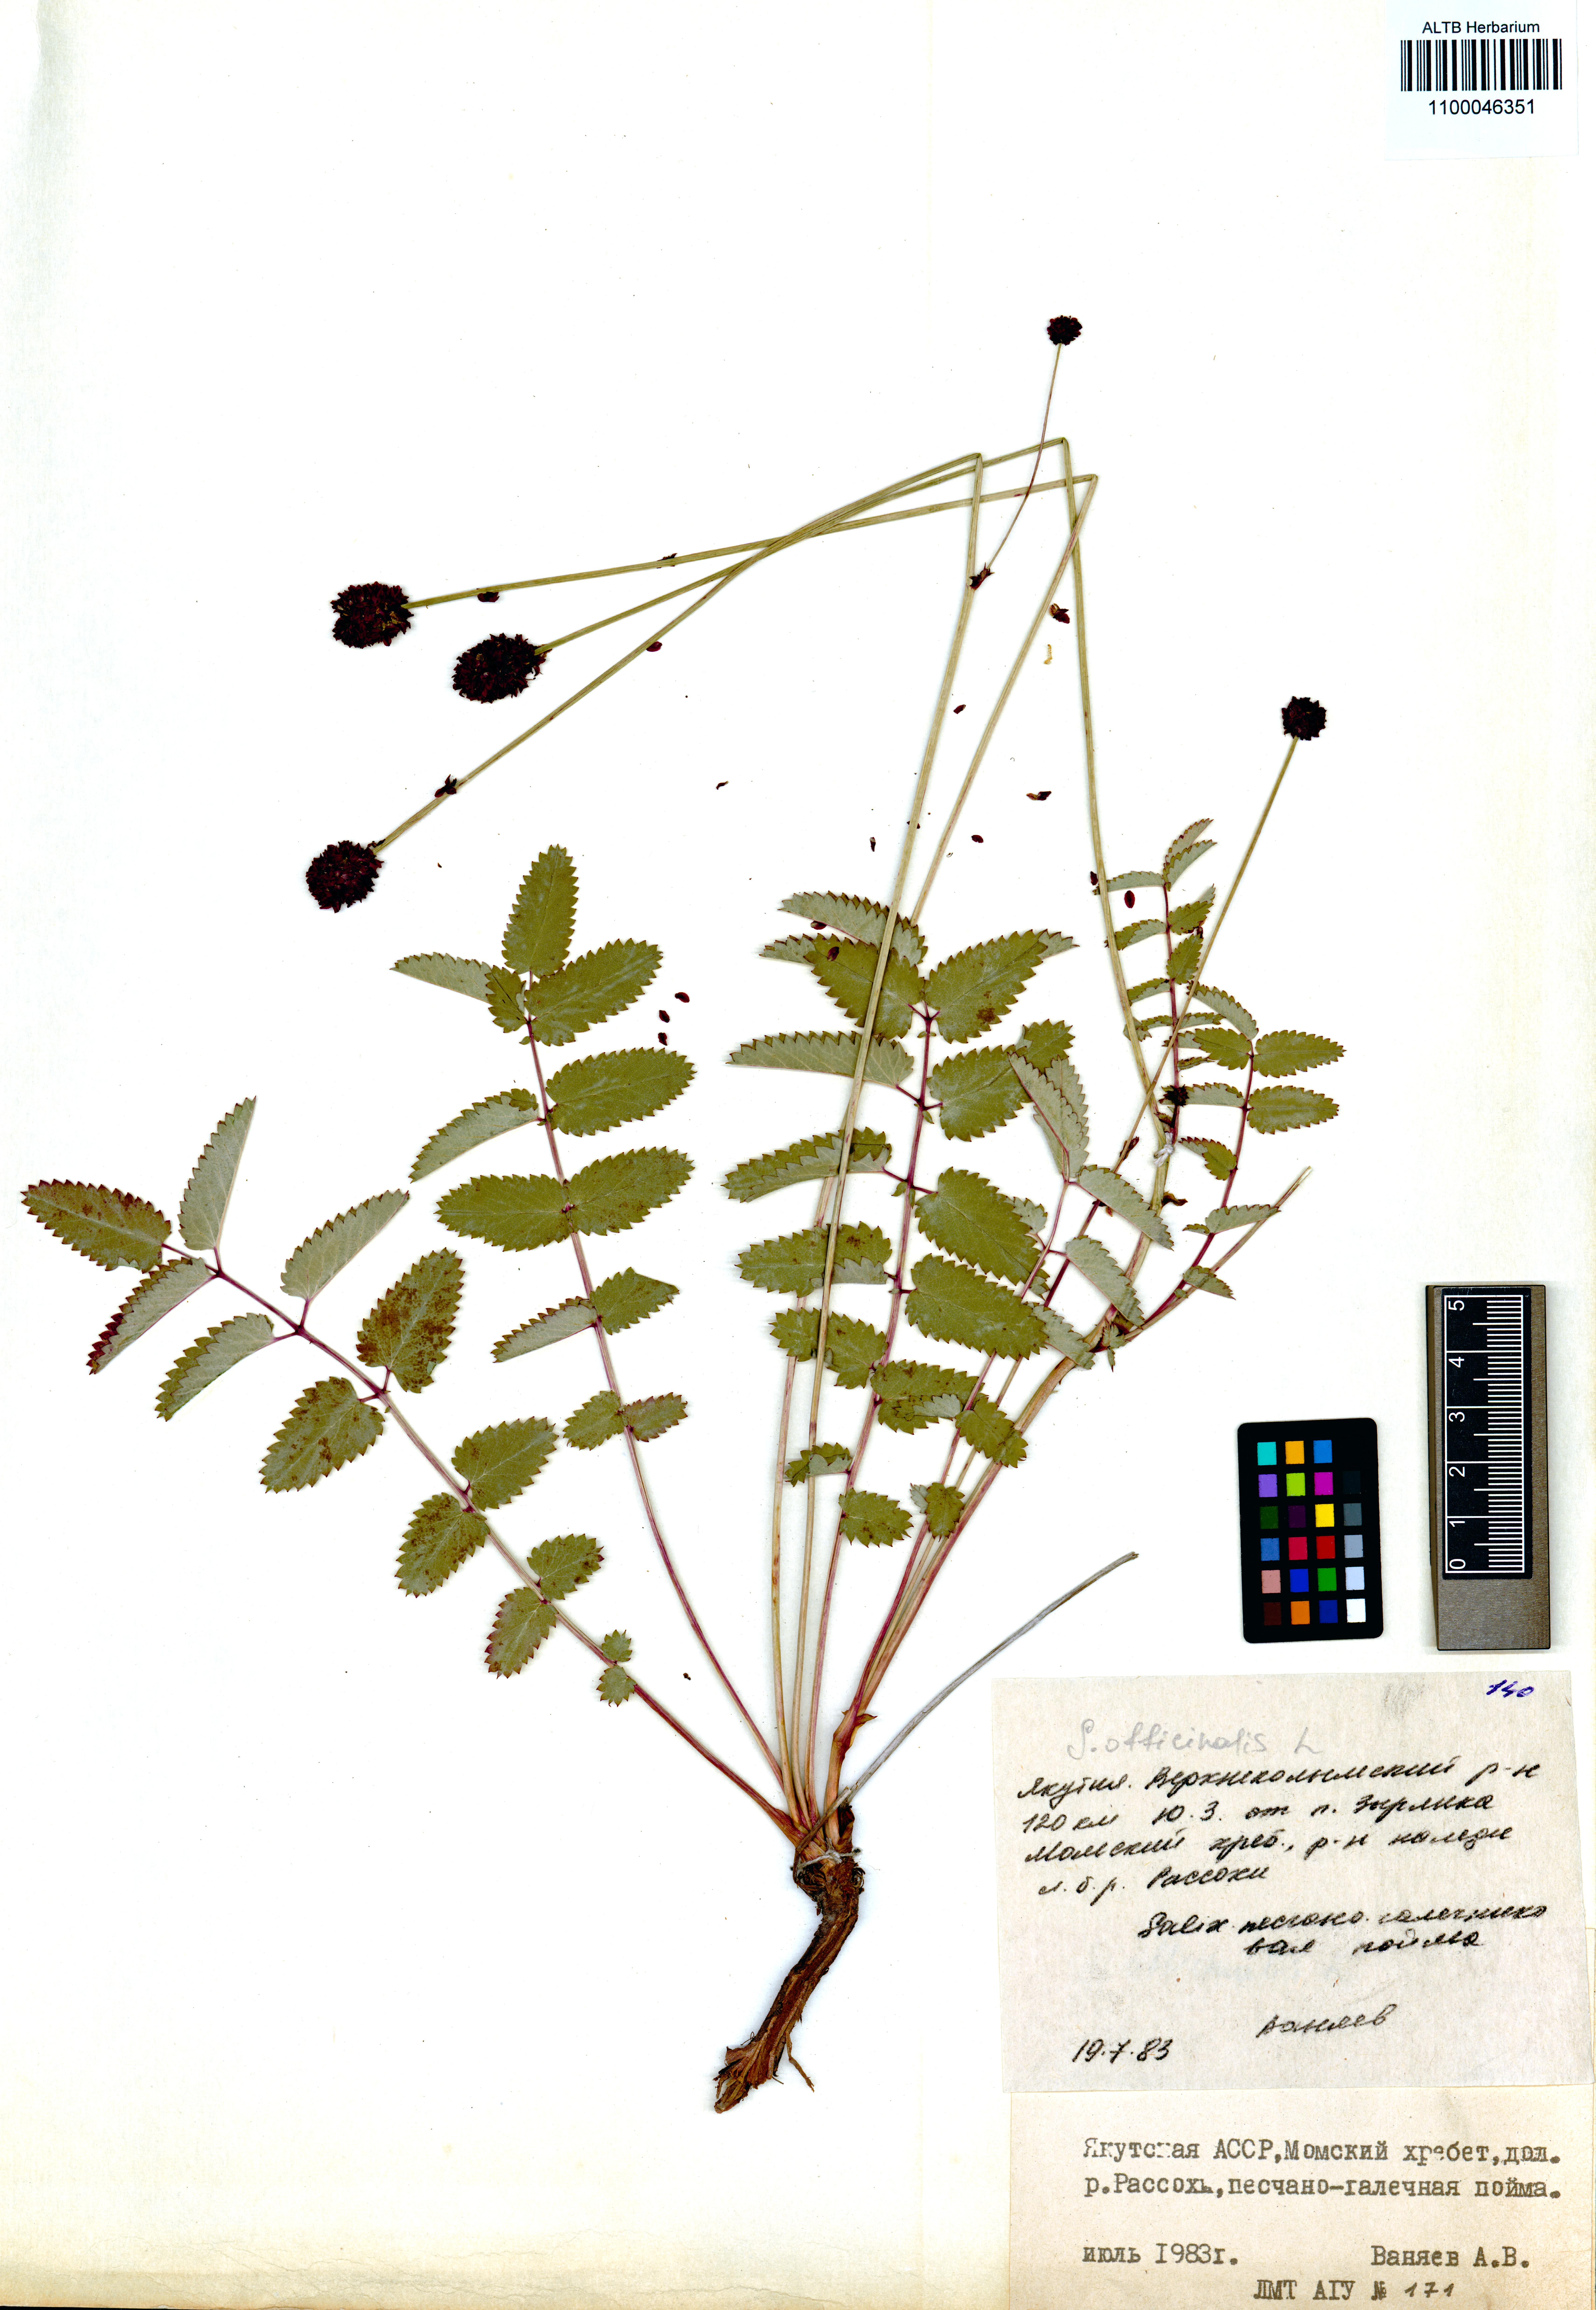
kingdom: Plantae
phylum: Tracheophyta
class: Magnoliopsida
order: Rosales
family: Rosaceae
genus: Sanguisorba
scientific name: Sanguisorba officinalis
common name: Great burnet
